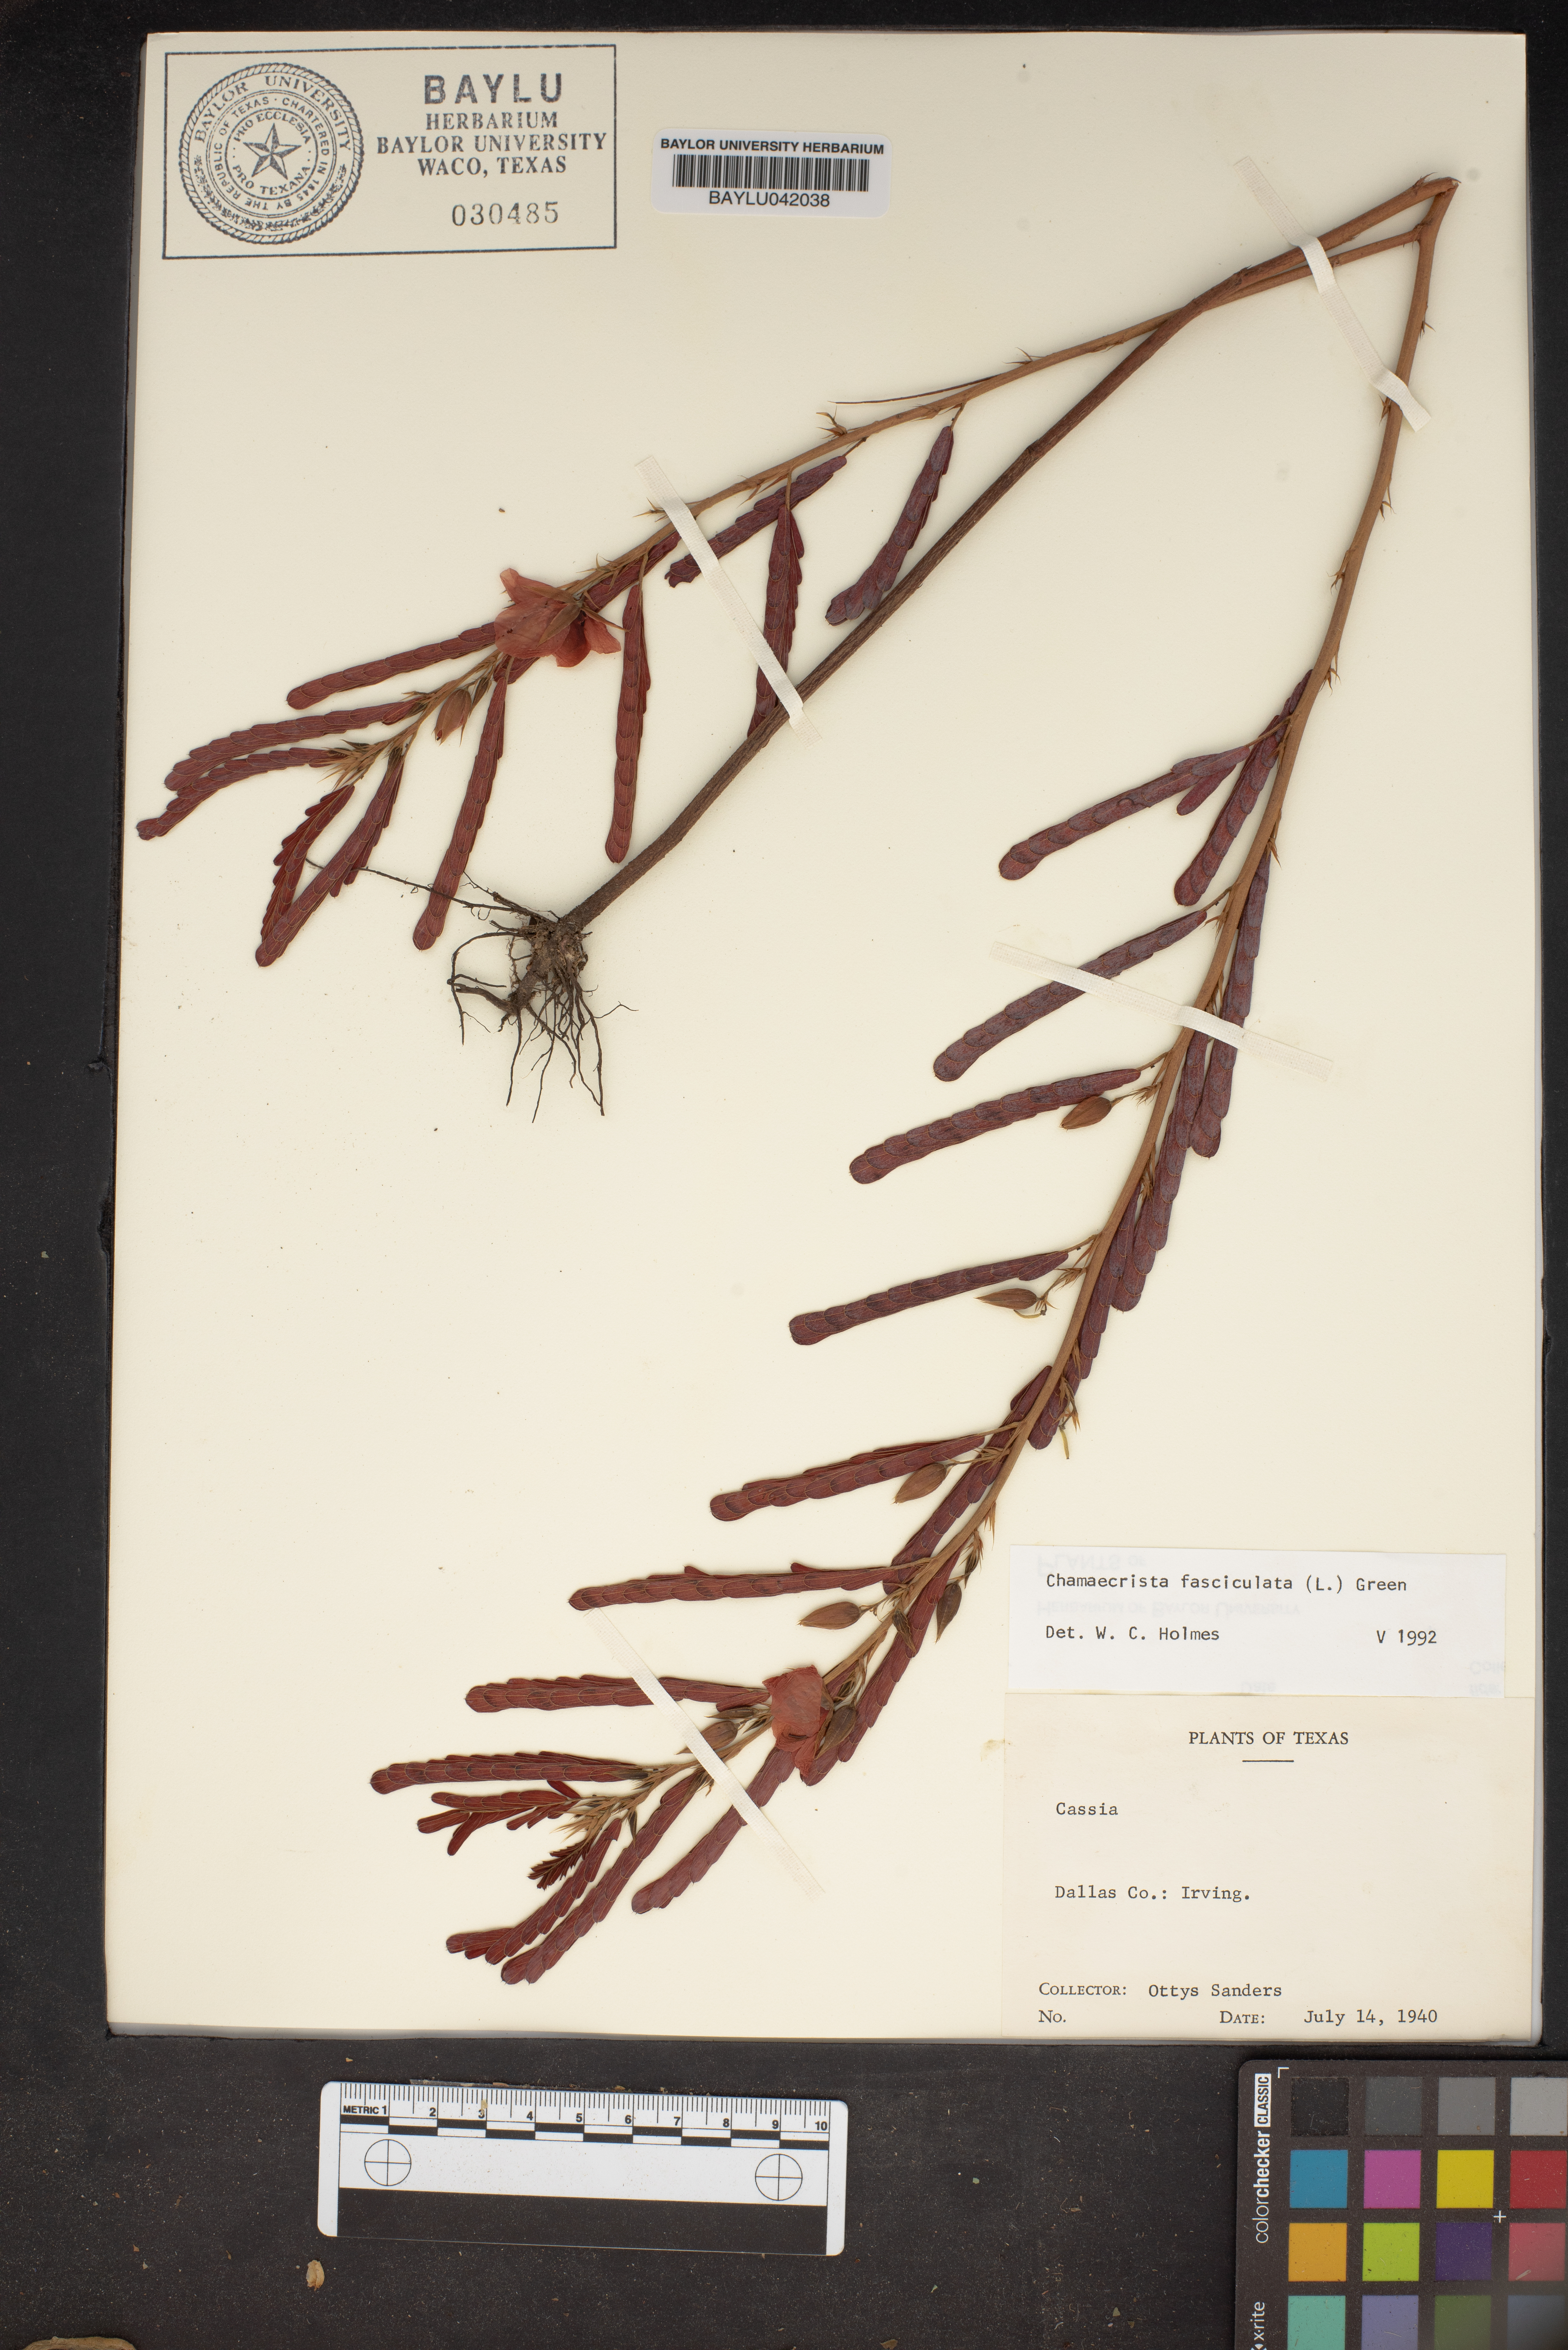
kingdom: Plantae
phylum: Tracheophyta
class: Magnoliopsida
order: Fabales
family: Fabaceae
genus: Chamaecrista
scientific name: Chamaecrista fasciculata
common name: Golden cassia
